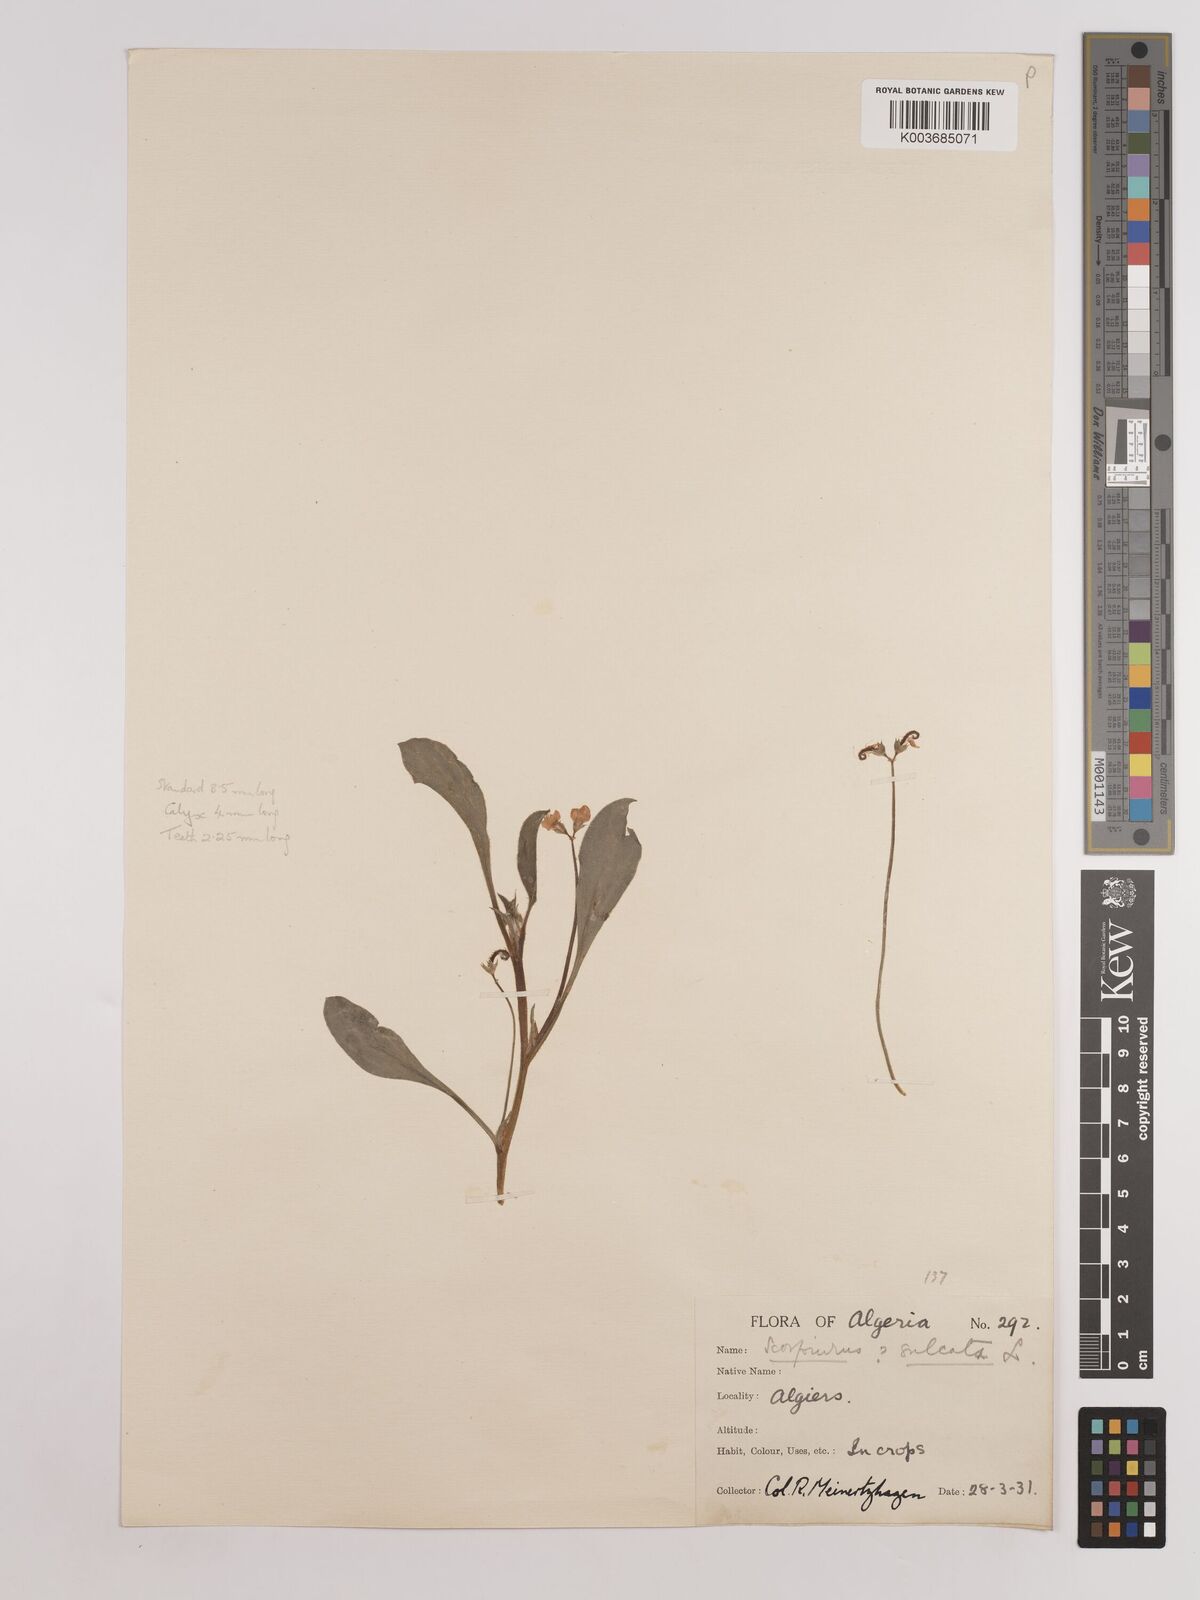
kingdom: Plantae
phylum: Tracheophyta
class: Magnoliopsida
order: Fabales
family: Fabaceae
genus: Scorpiurus
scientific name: Scorpiurus muricatus
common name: Caterpillar-plant
